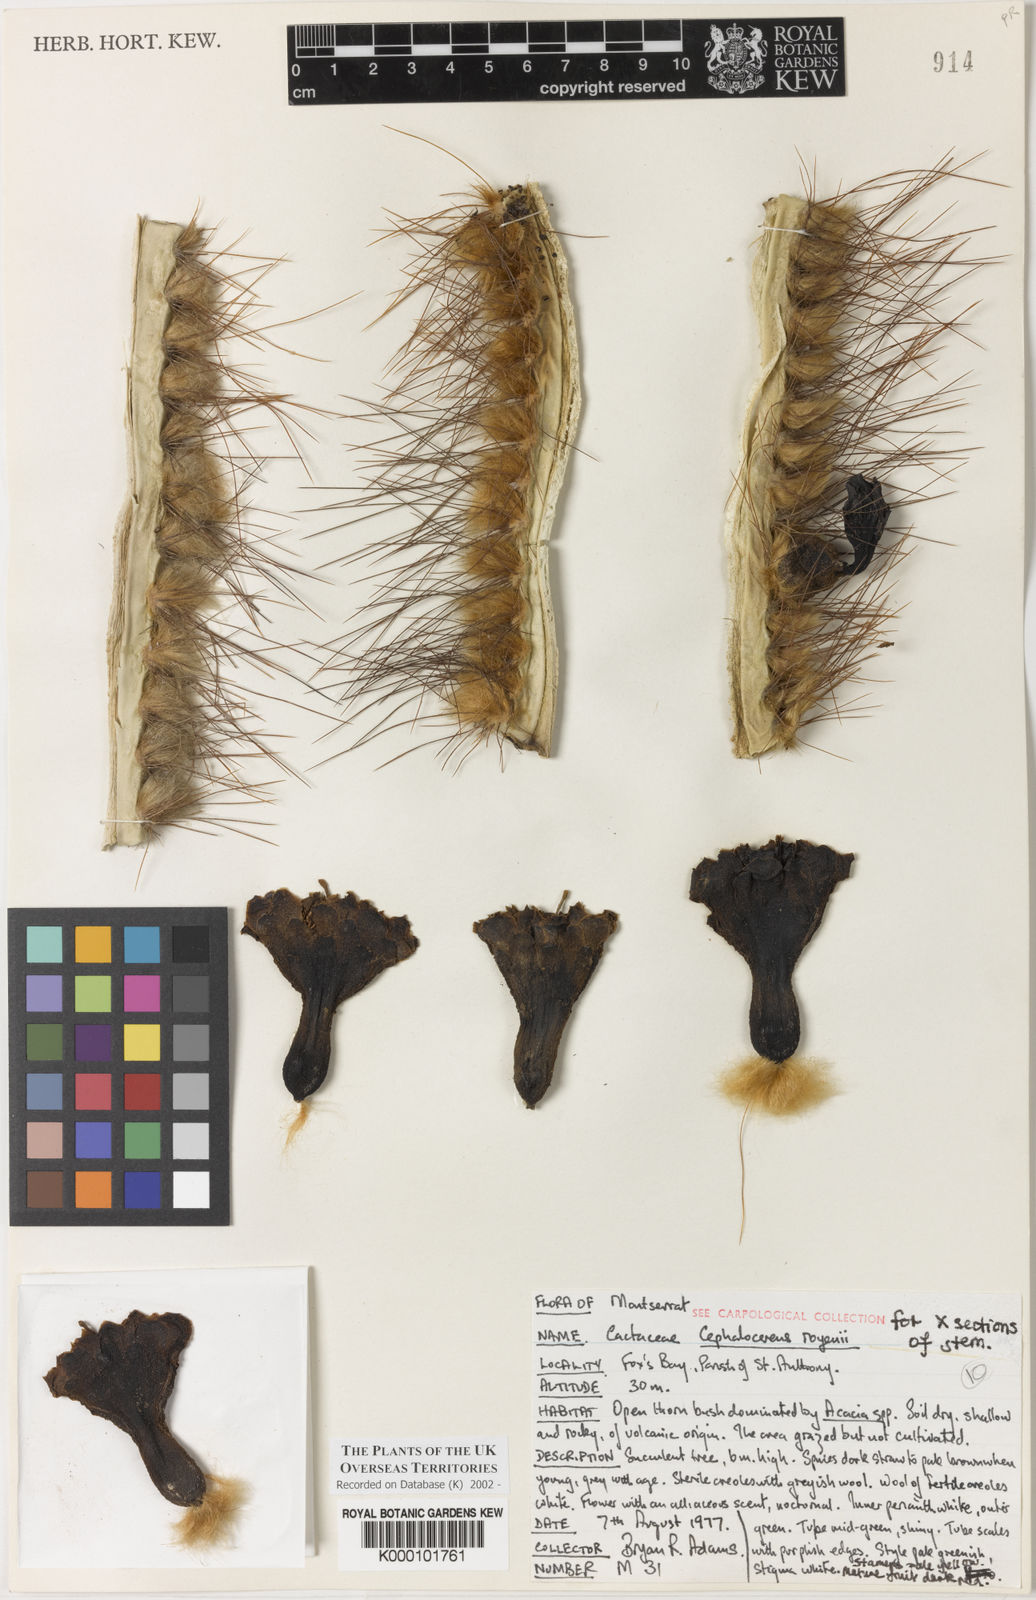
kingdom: Plantae
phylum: Tracheophyta
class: Magnoliopsida
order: Caryophyllales
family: Cactaceae
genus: Pilosocereus
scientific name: Pilosocereus polygonus
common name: Key tree cactus
